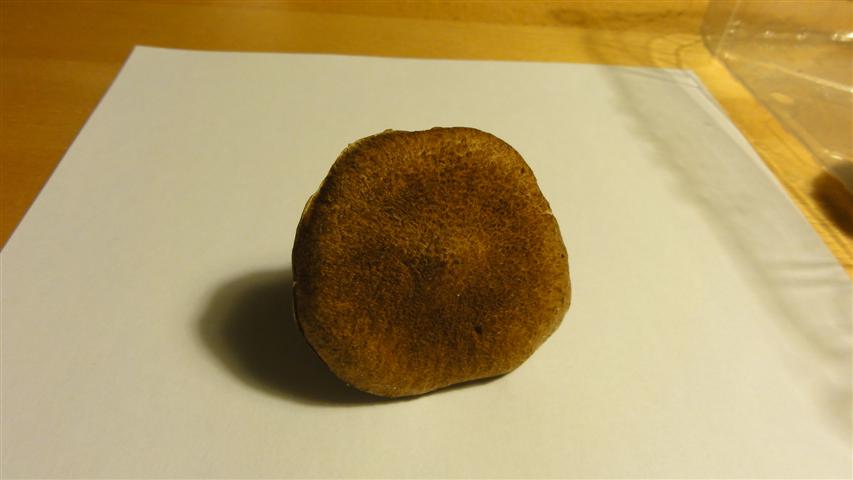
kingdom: Fungi
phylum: Basidiomycota
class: Agaricomycetes
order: Boletales
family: Suillaceae
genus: Suillus
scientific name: Suillus cavipes
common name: hulstokket slimrørhat
